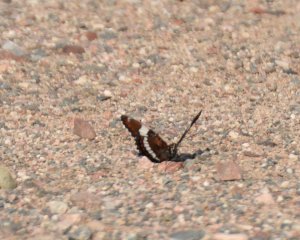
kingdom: Animalia
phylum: Arthropoda
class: Insecta
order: Lepidoptera
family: Nymphalidae
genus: Limenitis
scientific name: Limenitis arthemis
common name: Red-spotted Admiral
